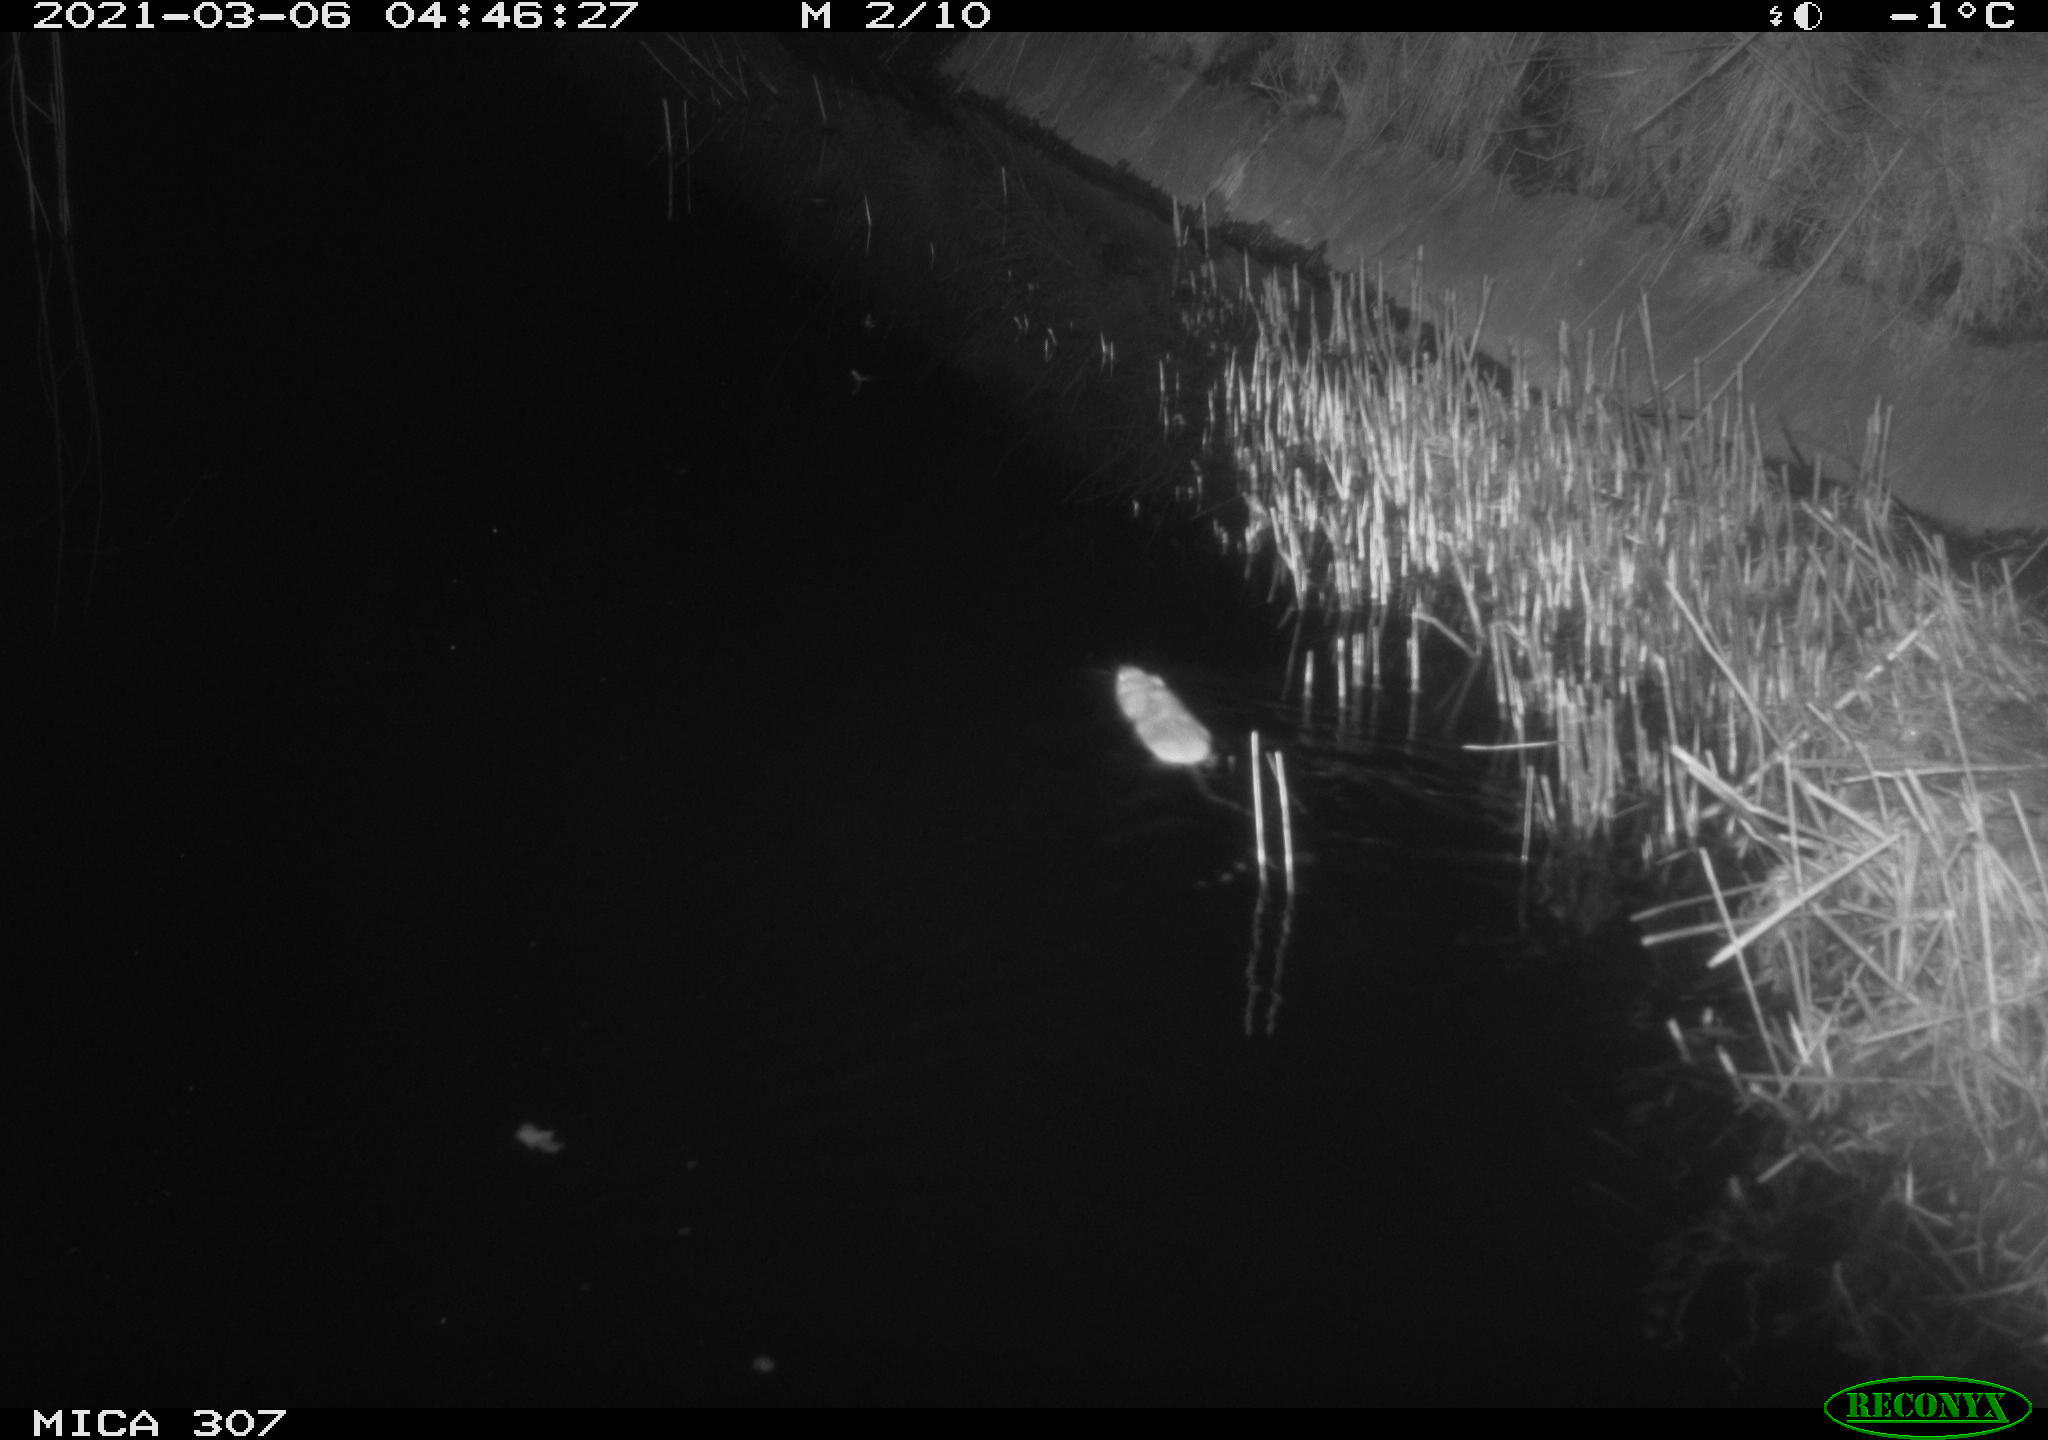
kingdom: Animalia
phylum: Chordata
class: Mammalia
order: Rodentia
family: Muridae
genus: Rattus
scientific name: Rattus norvegicus
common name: Brown rat
